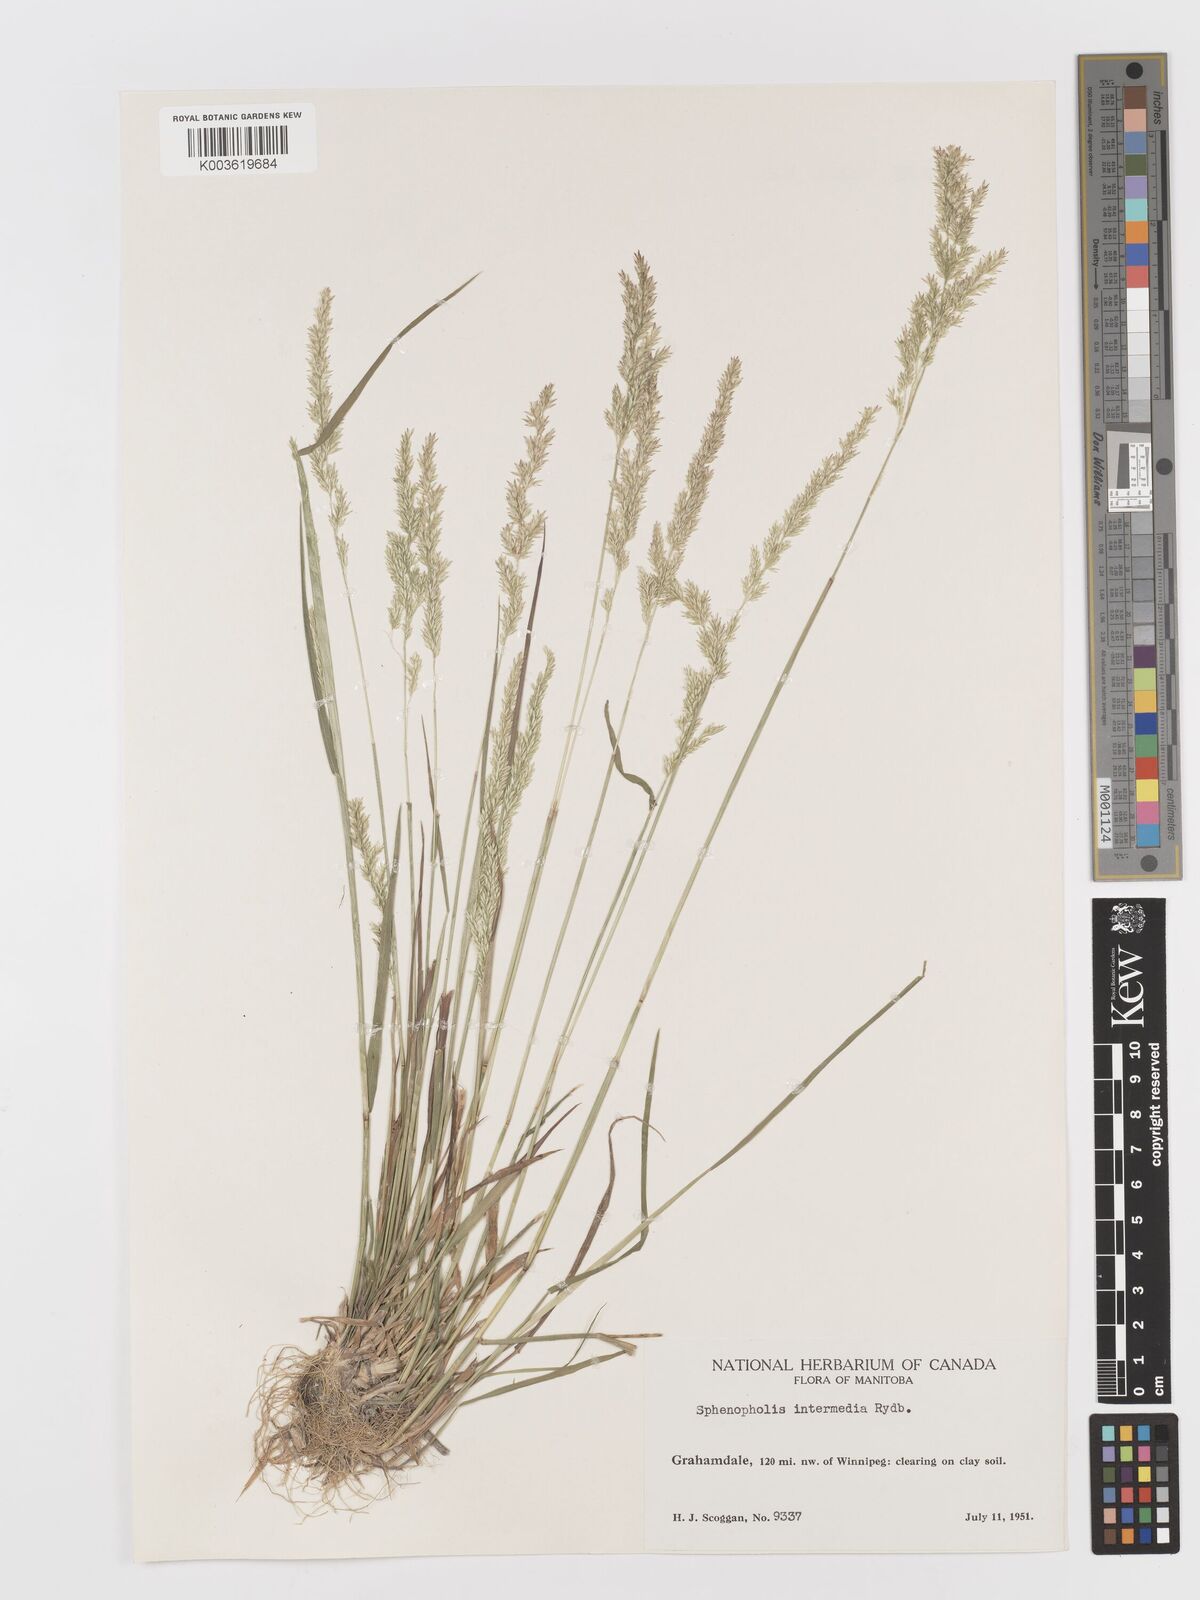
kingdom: Plantae
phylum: Tracheophyta
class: Liliopsida
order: Poales
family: Poaceae
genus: Sphenopholis
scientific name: Sphenopholis obtusata
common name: Prairie grass
